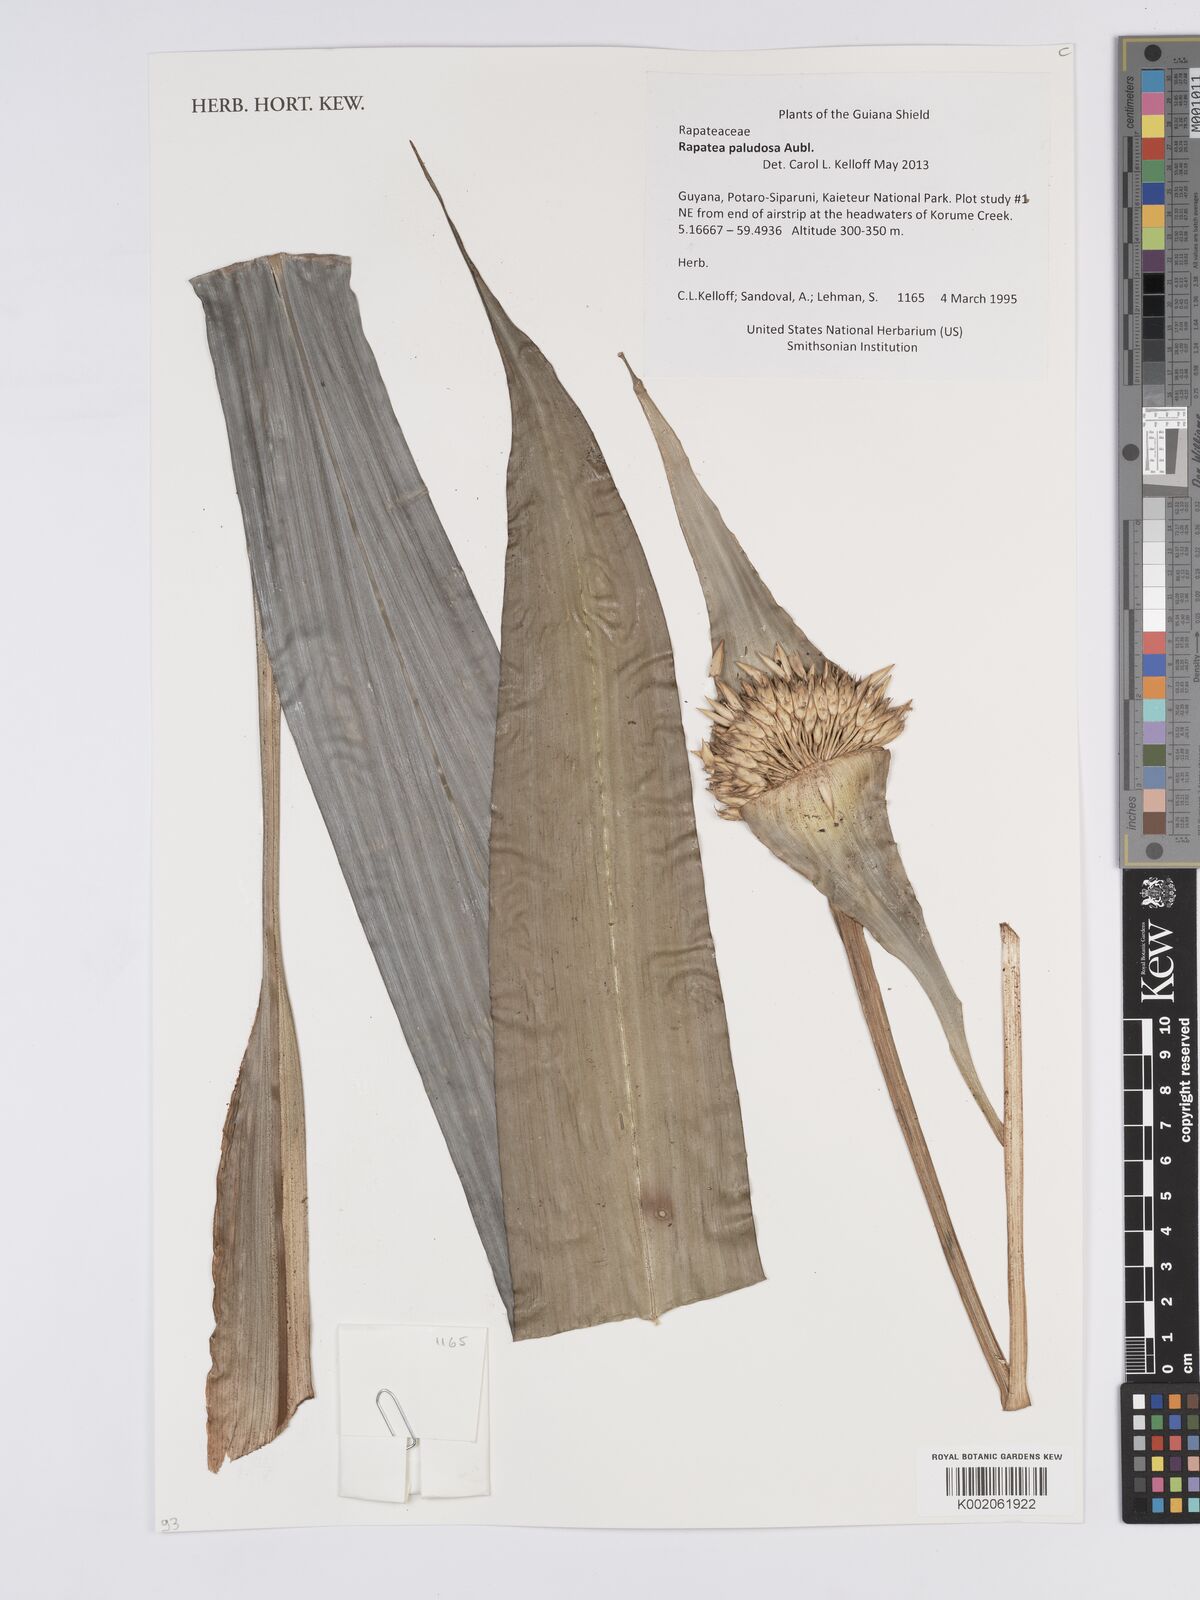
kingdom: Plantae
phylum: Tracheophyta
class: Liliopsida
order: Poales
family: Rapateaceae
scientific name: Rapateaceae
